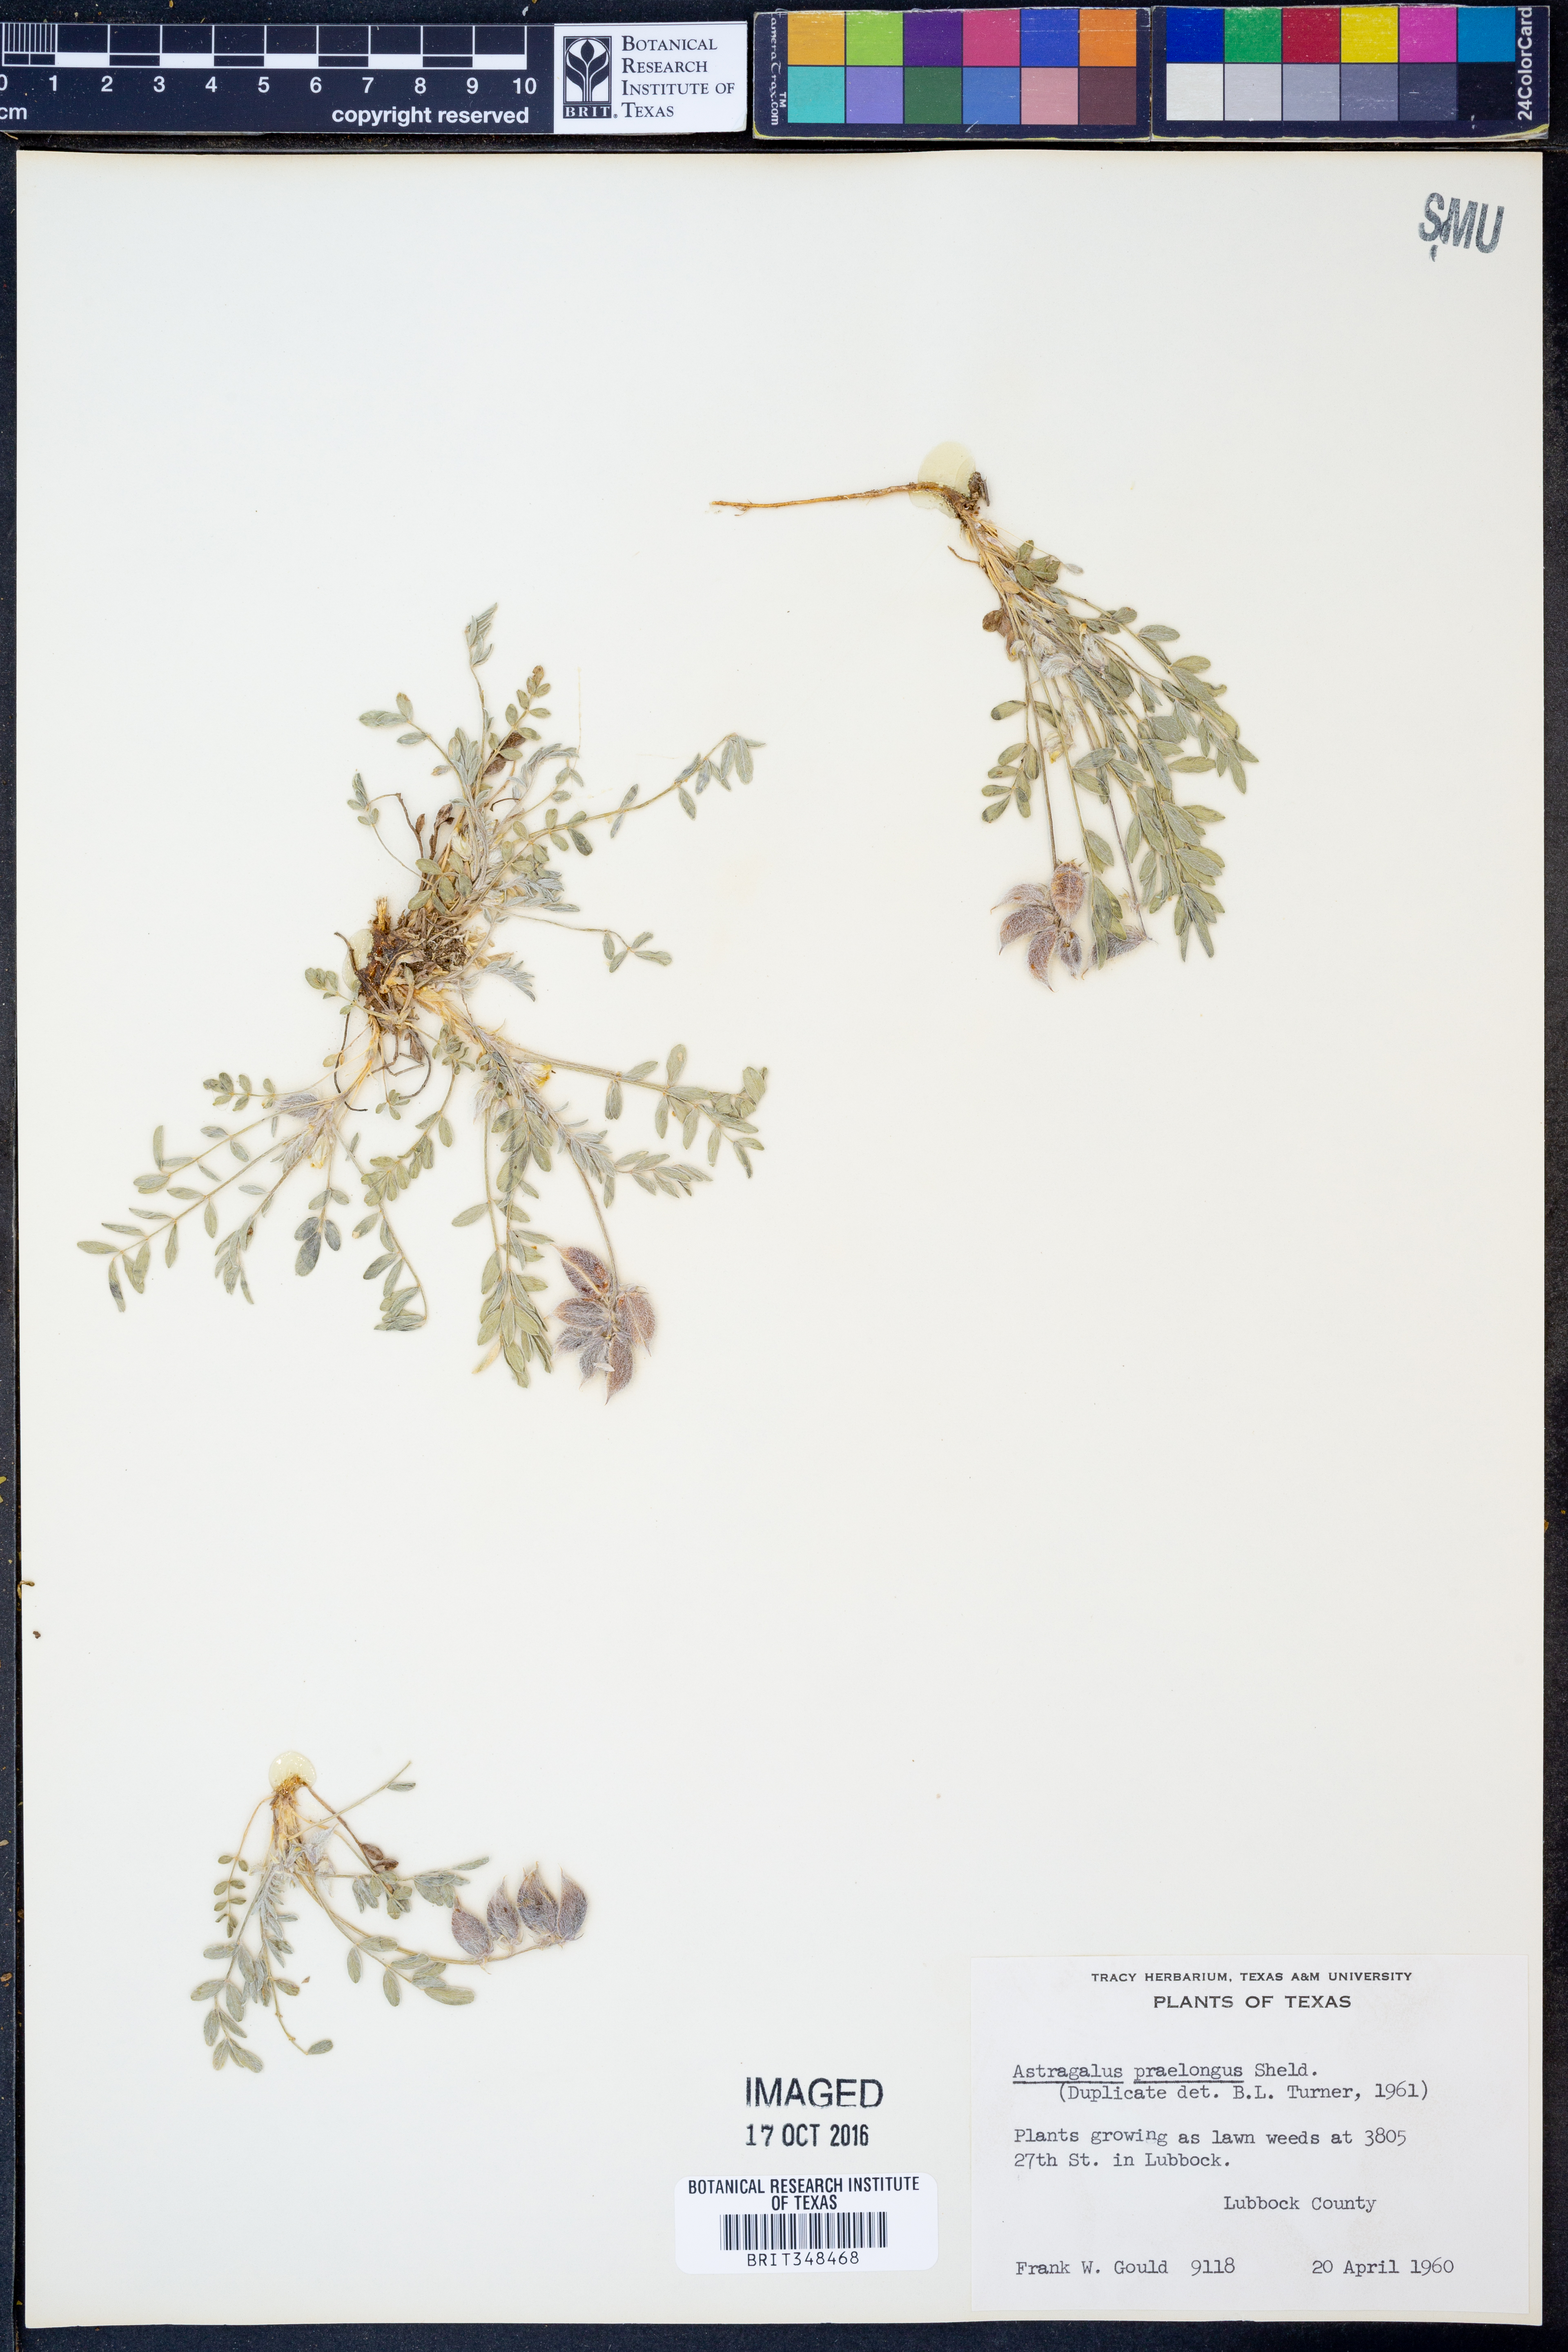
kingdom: Plantae
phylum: Tracheophyta
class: Magnoliopsida
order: Fabales
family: Fabaceae
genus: Astragalus
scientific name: Astragalus praelongus
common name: Stinking milk-vetch
